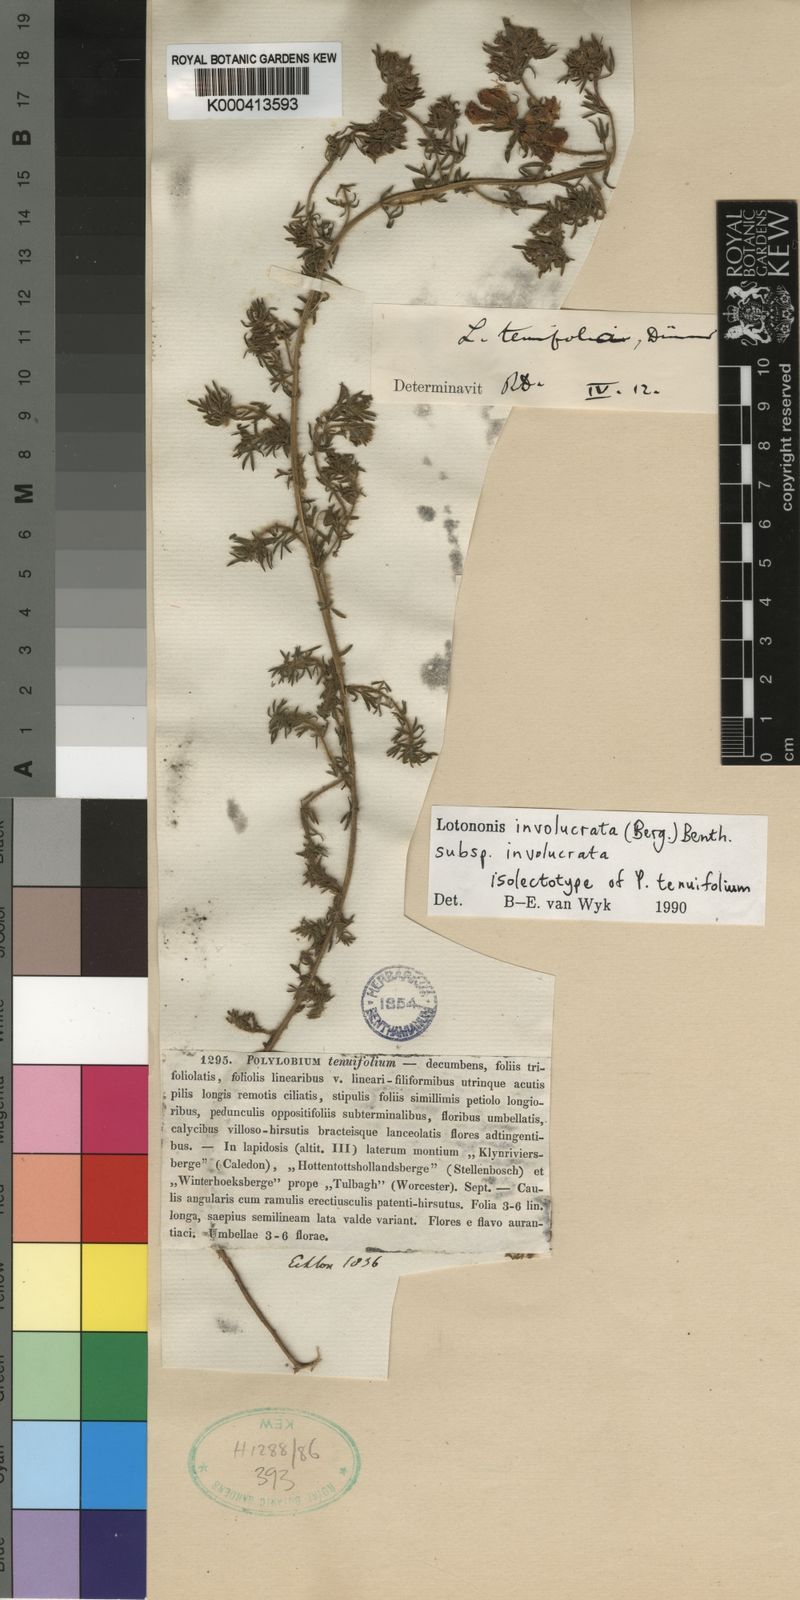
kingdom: Plantae
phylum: Tracheophyta
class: Magnoliopsida
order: Fabales
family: Fabaceae
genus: Lotononis
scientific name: Lotononis involucrata
